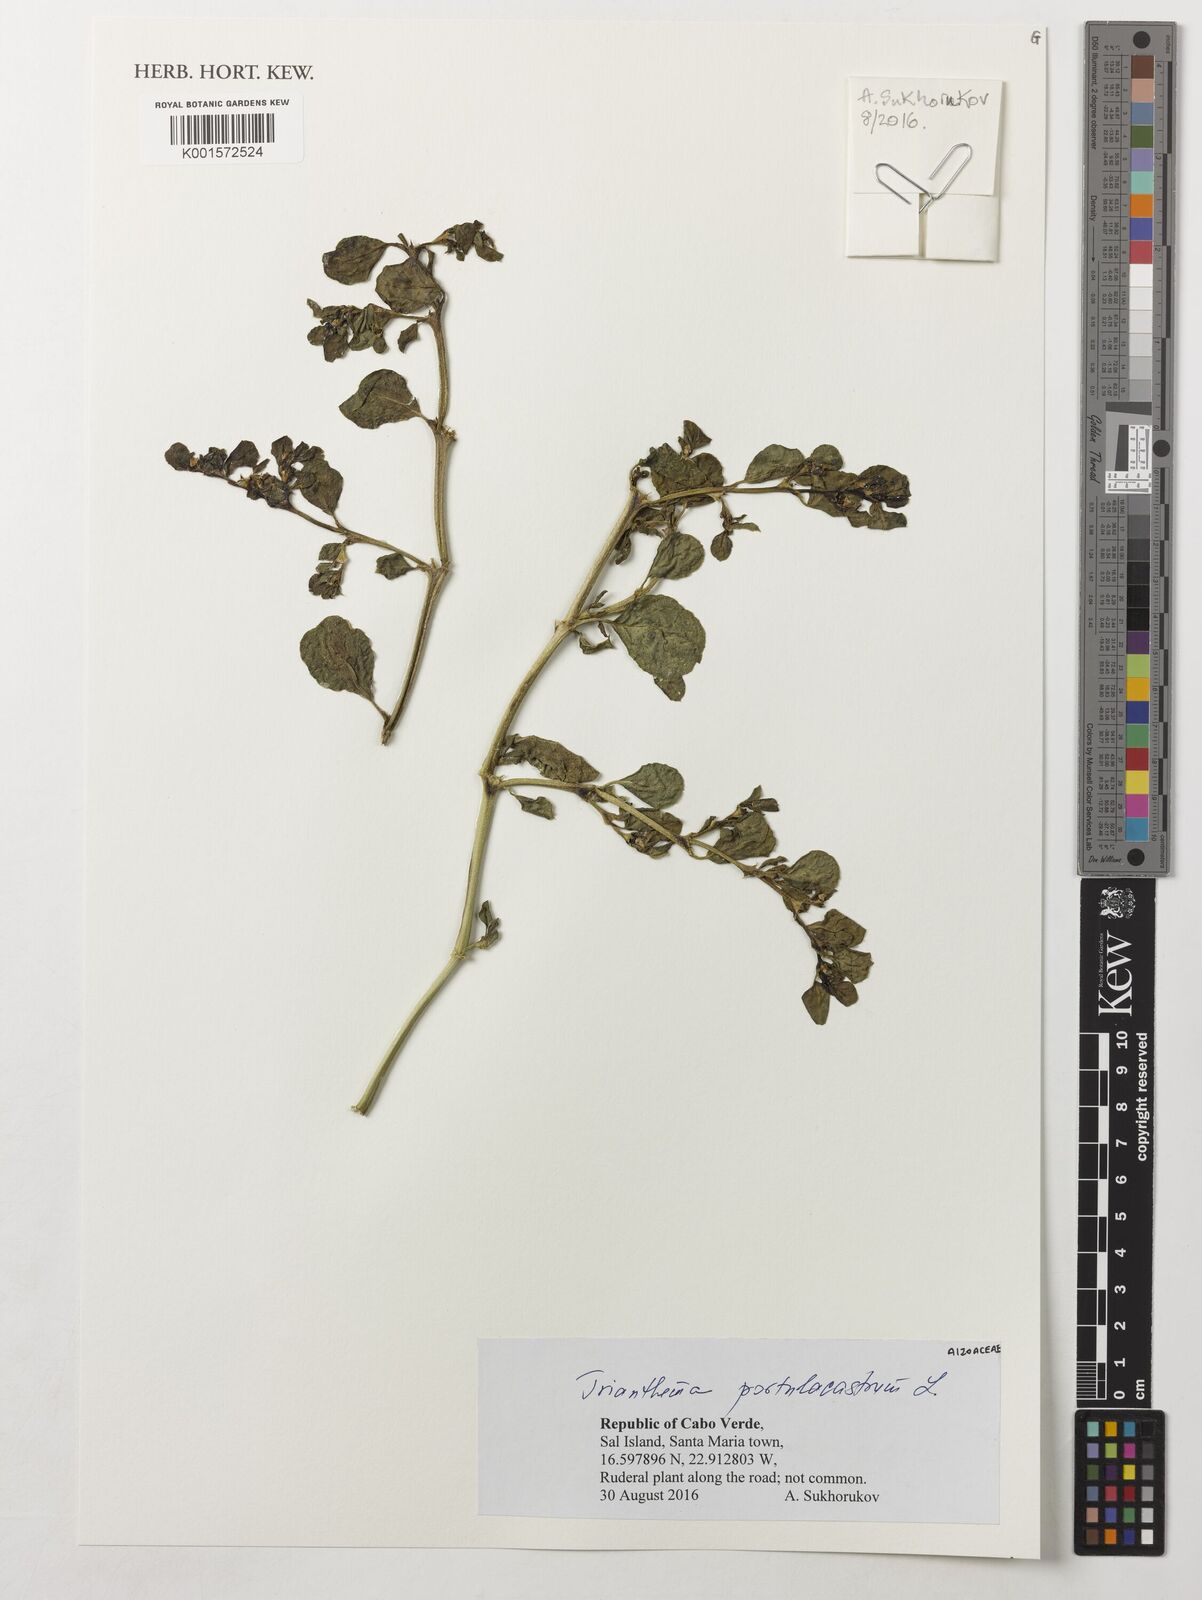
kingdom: Plantae
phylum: Tracheophyta
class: Magnoliopsida
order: Caryophyllales
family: Aizoaceae
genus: Trianthema
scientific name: Trianthema portulacastrum
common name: Desert horsepurslane
